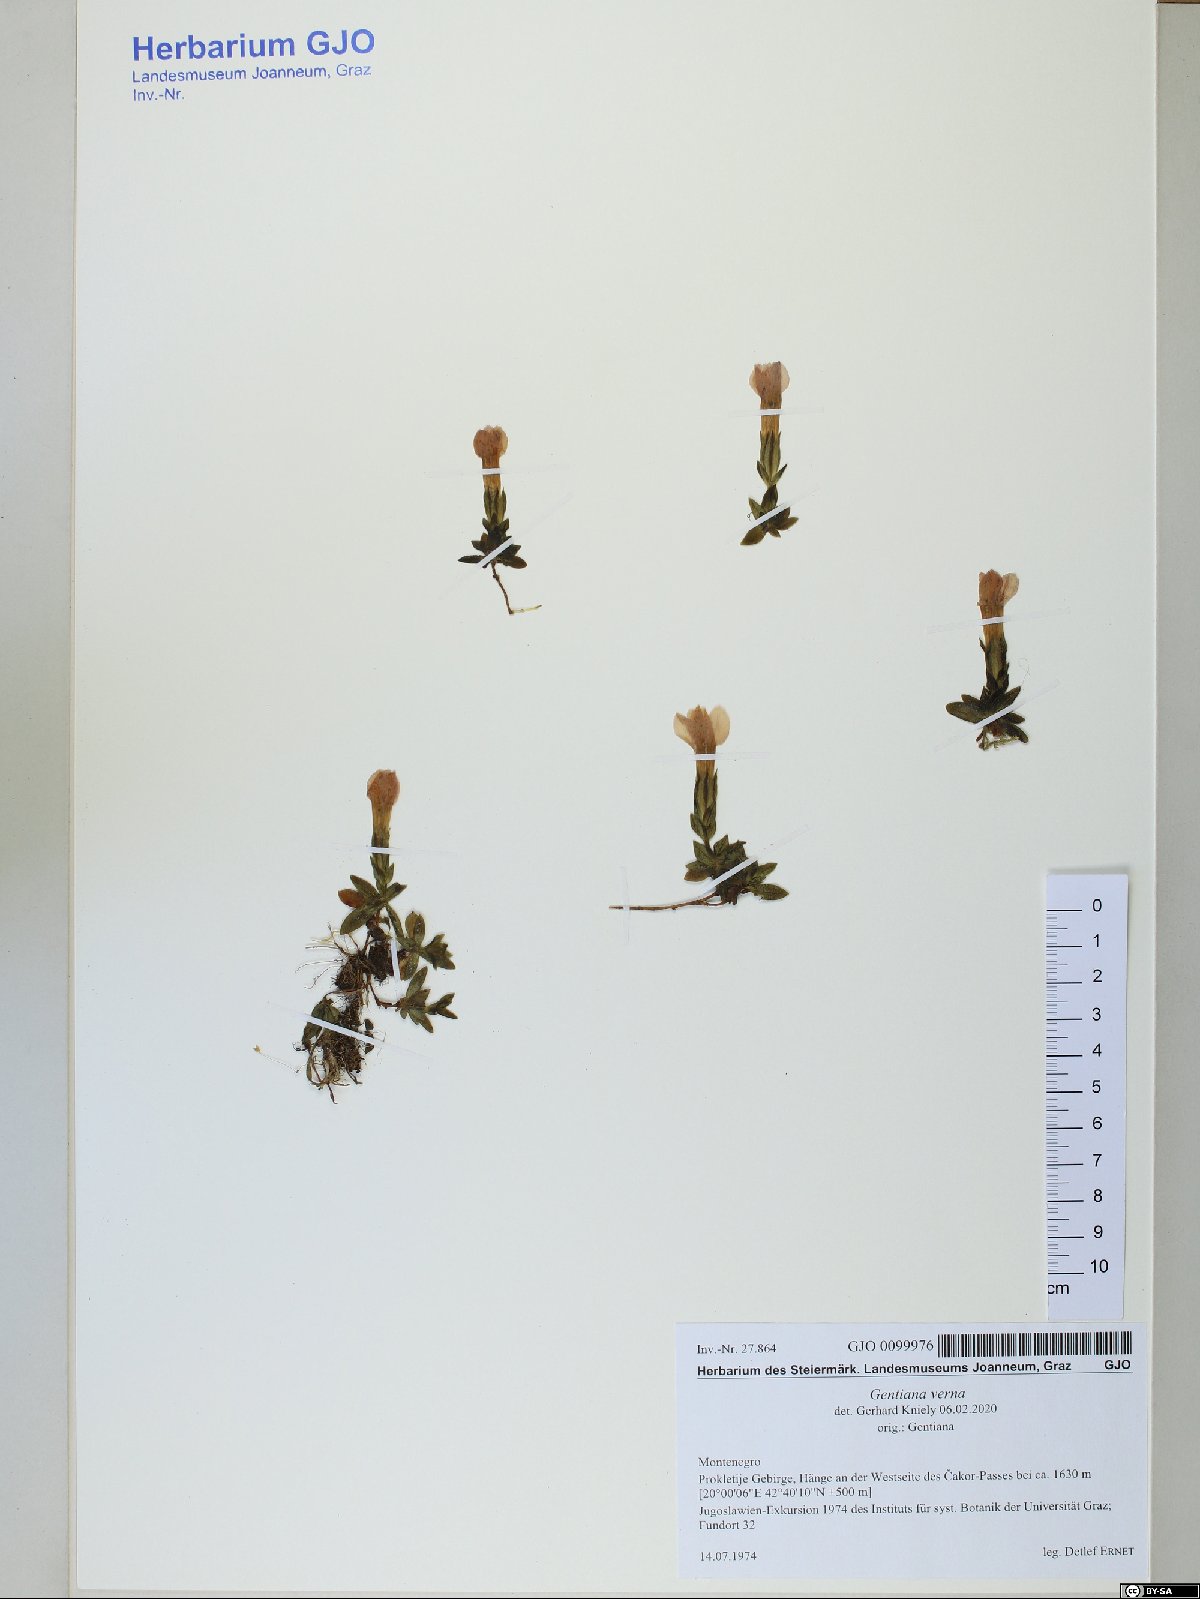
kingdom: Plantae
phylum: Tracheophyta
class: Magnoliopsida
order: Gentianales
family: Gentianaceae
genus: Gentiana
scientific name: Gentiana verna
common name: Spring gentian
